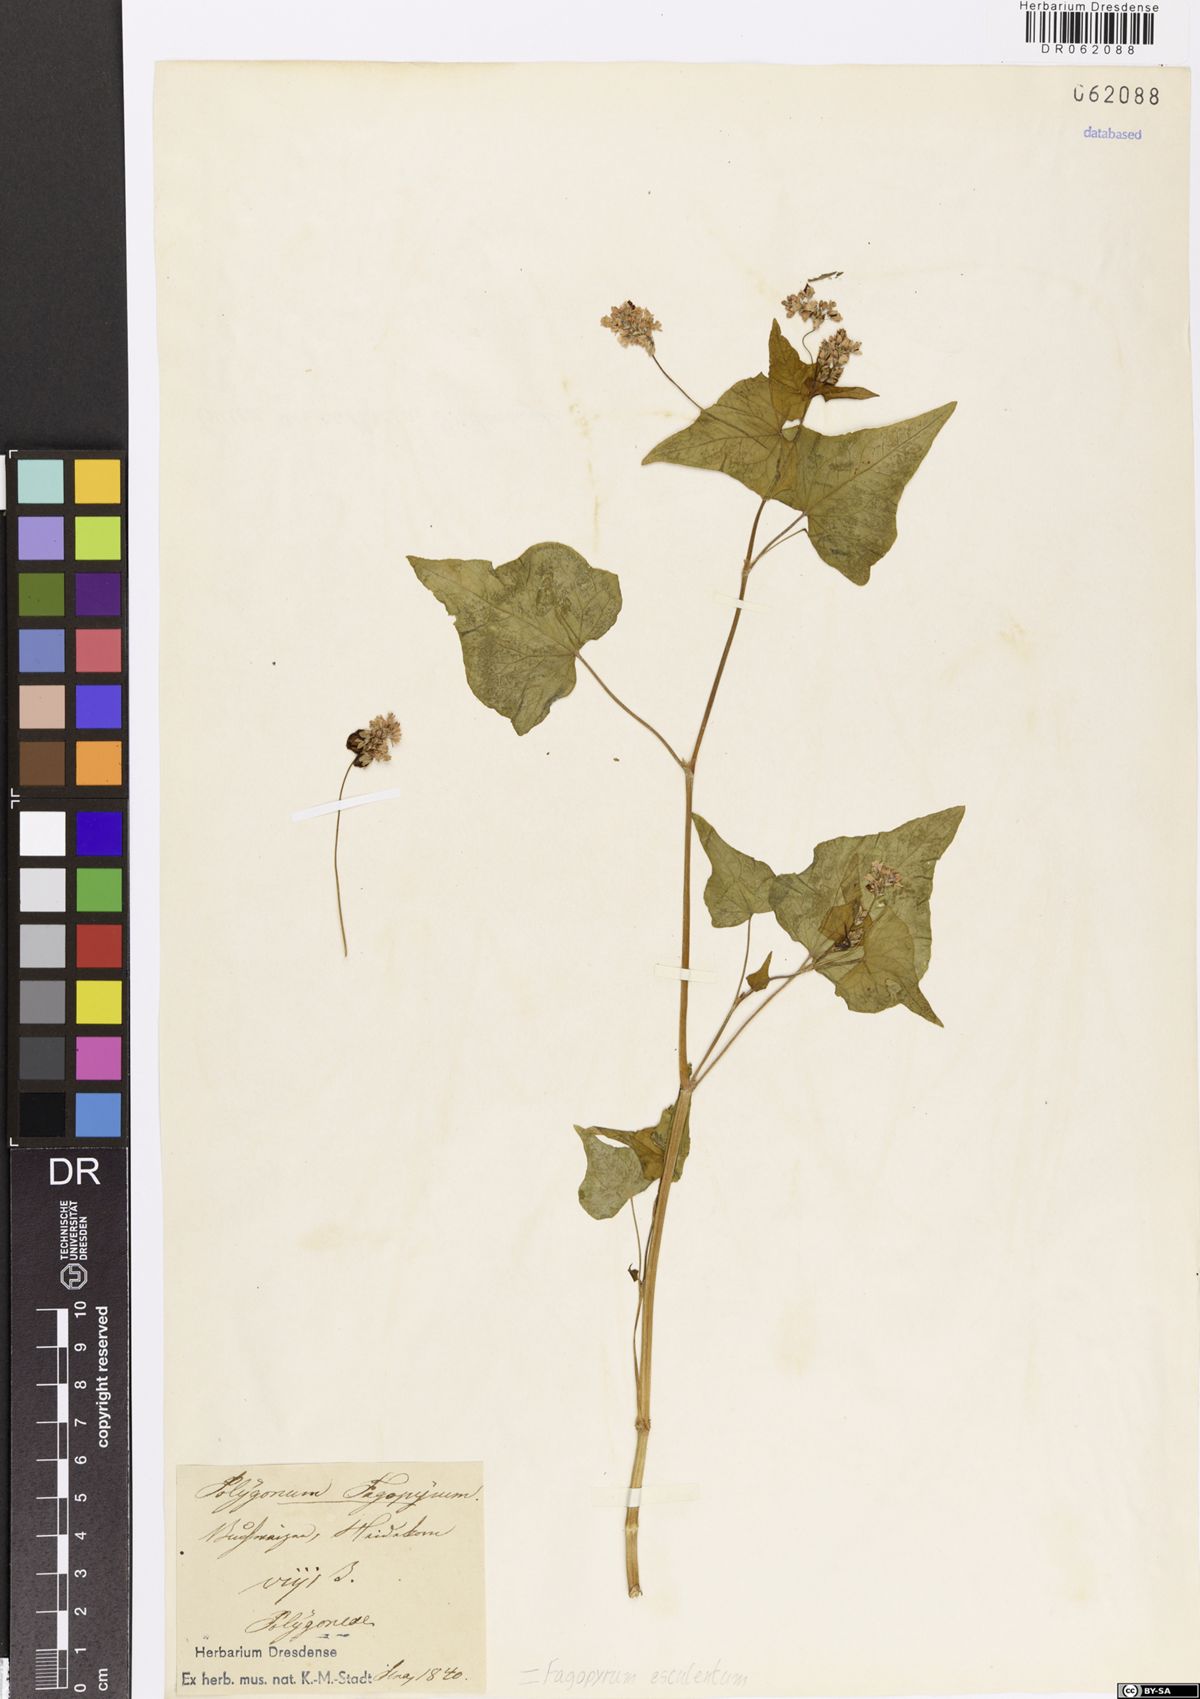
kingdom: Plantae
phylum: Tracheophyta
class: Magnoliopsida
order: Caryophyllales
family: Polygonaceae
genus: Fagopyrum
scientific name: Fagopyrum esculentum
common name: Buckwheat
